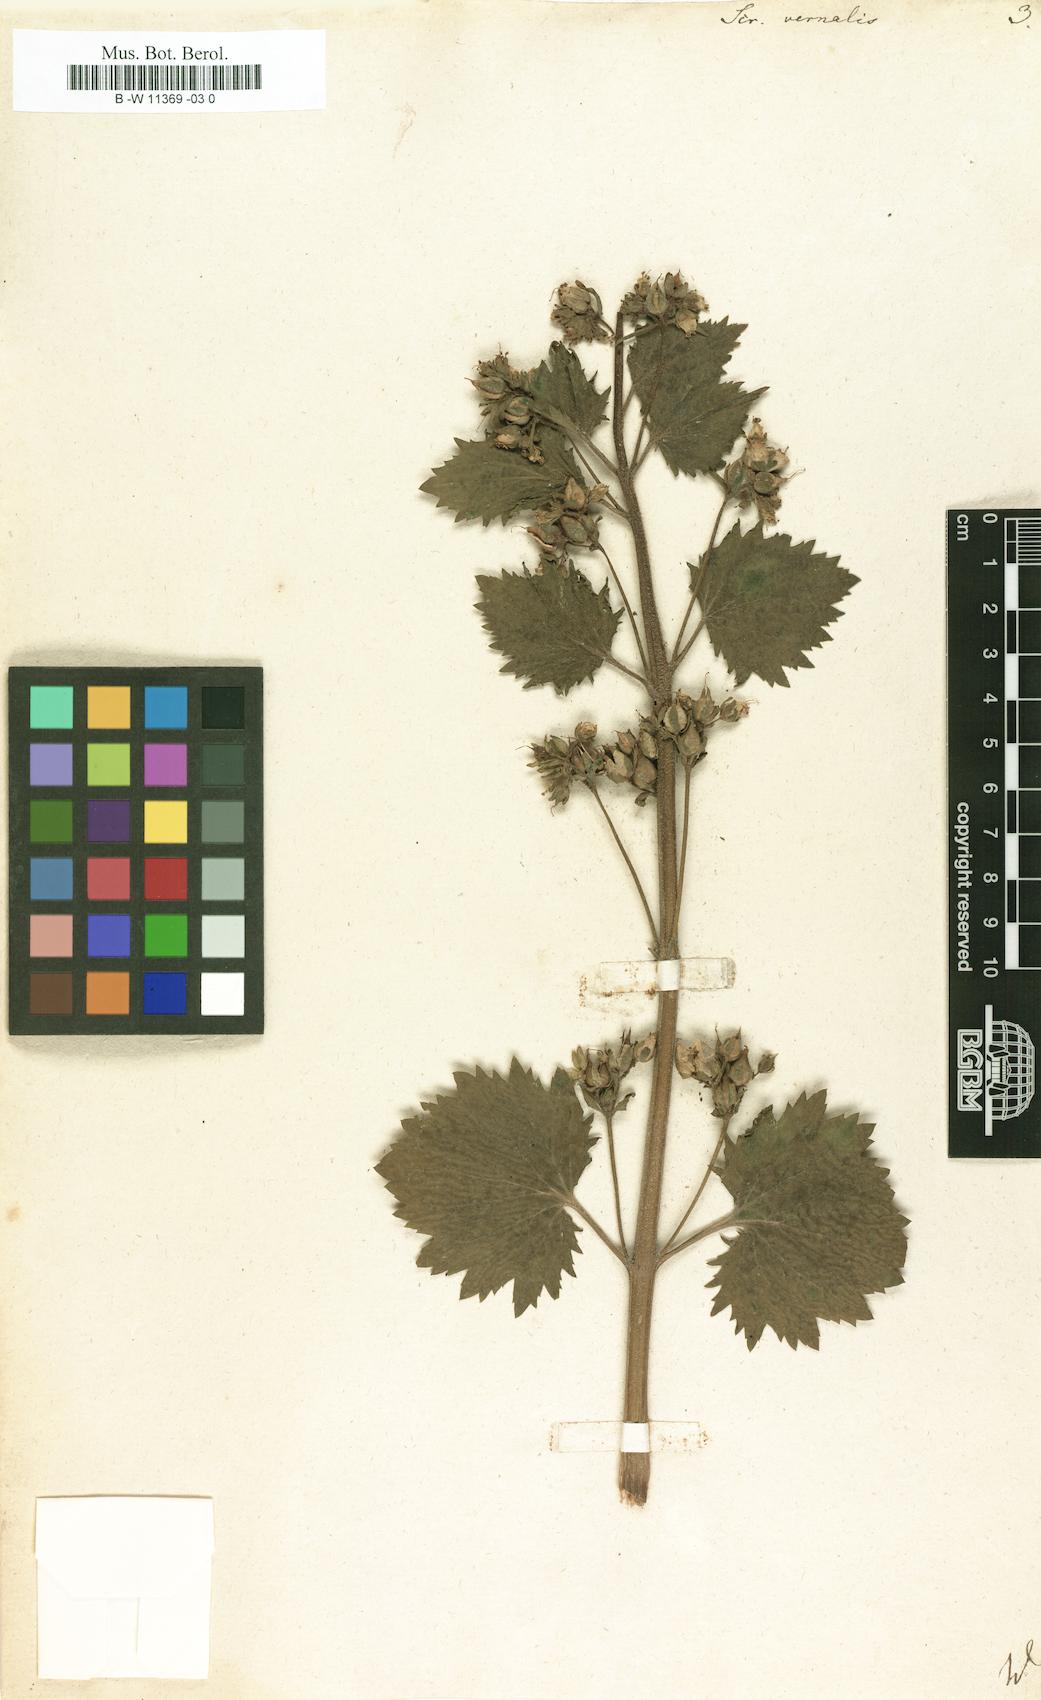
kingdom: Plantae
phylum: Tracheophyta
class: Magnoliopsida
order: Lamiales
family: Scrophulariaceae
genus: Scrophularia
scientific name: Scrophularia vernalis
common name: Yellow figwort
